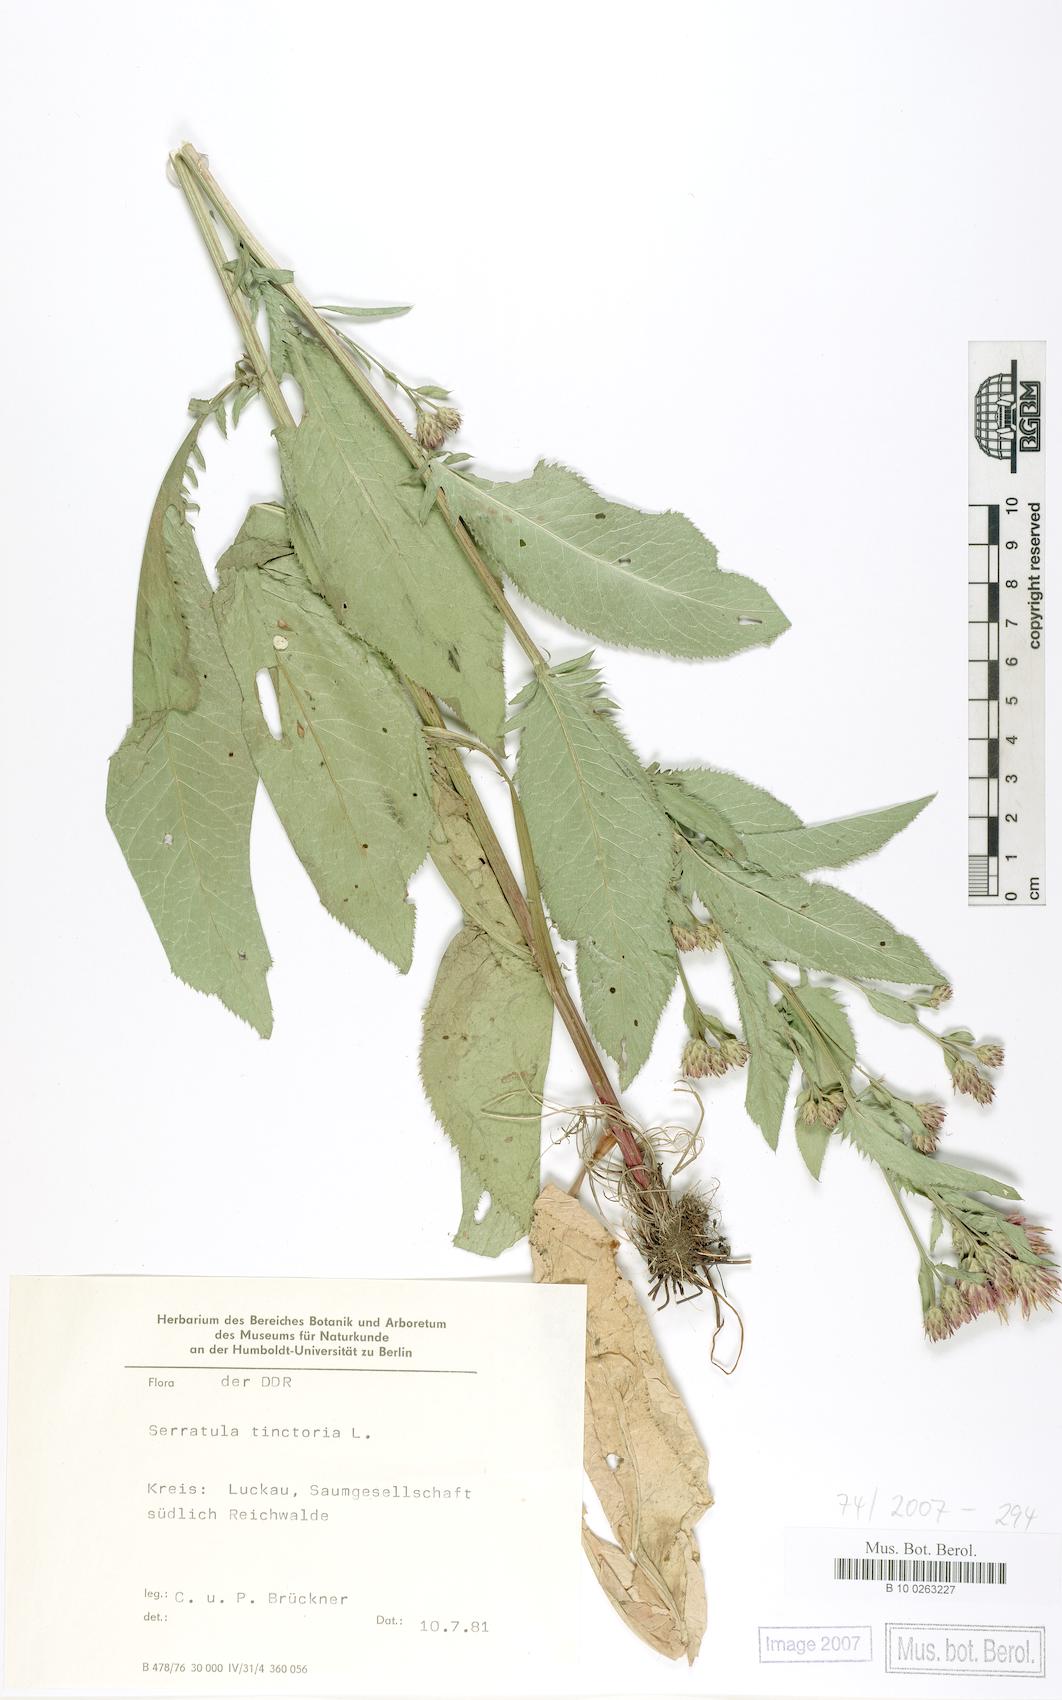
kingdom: Plantae
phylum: Tracheophyta
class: Magnoliopsida
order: Asterales
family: Asteraceae
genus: Serratula
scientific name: Serratula tinctoria
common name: Saw-wort
